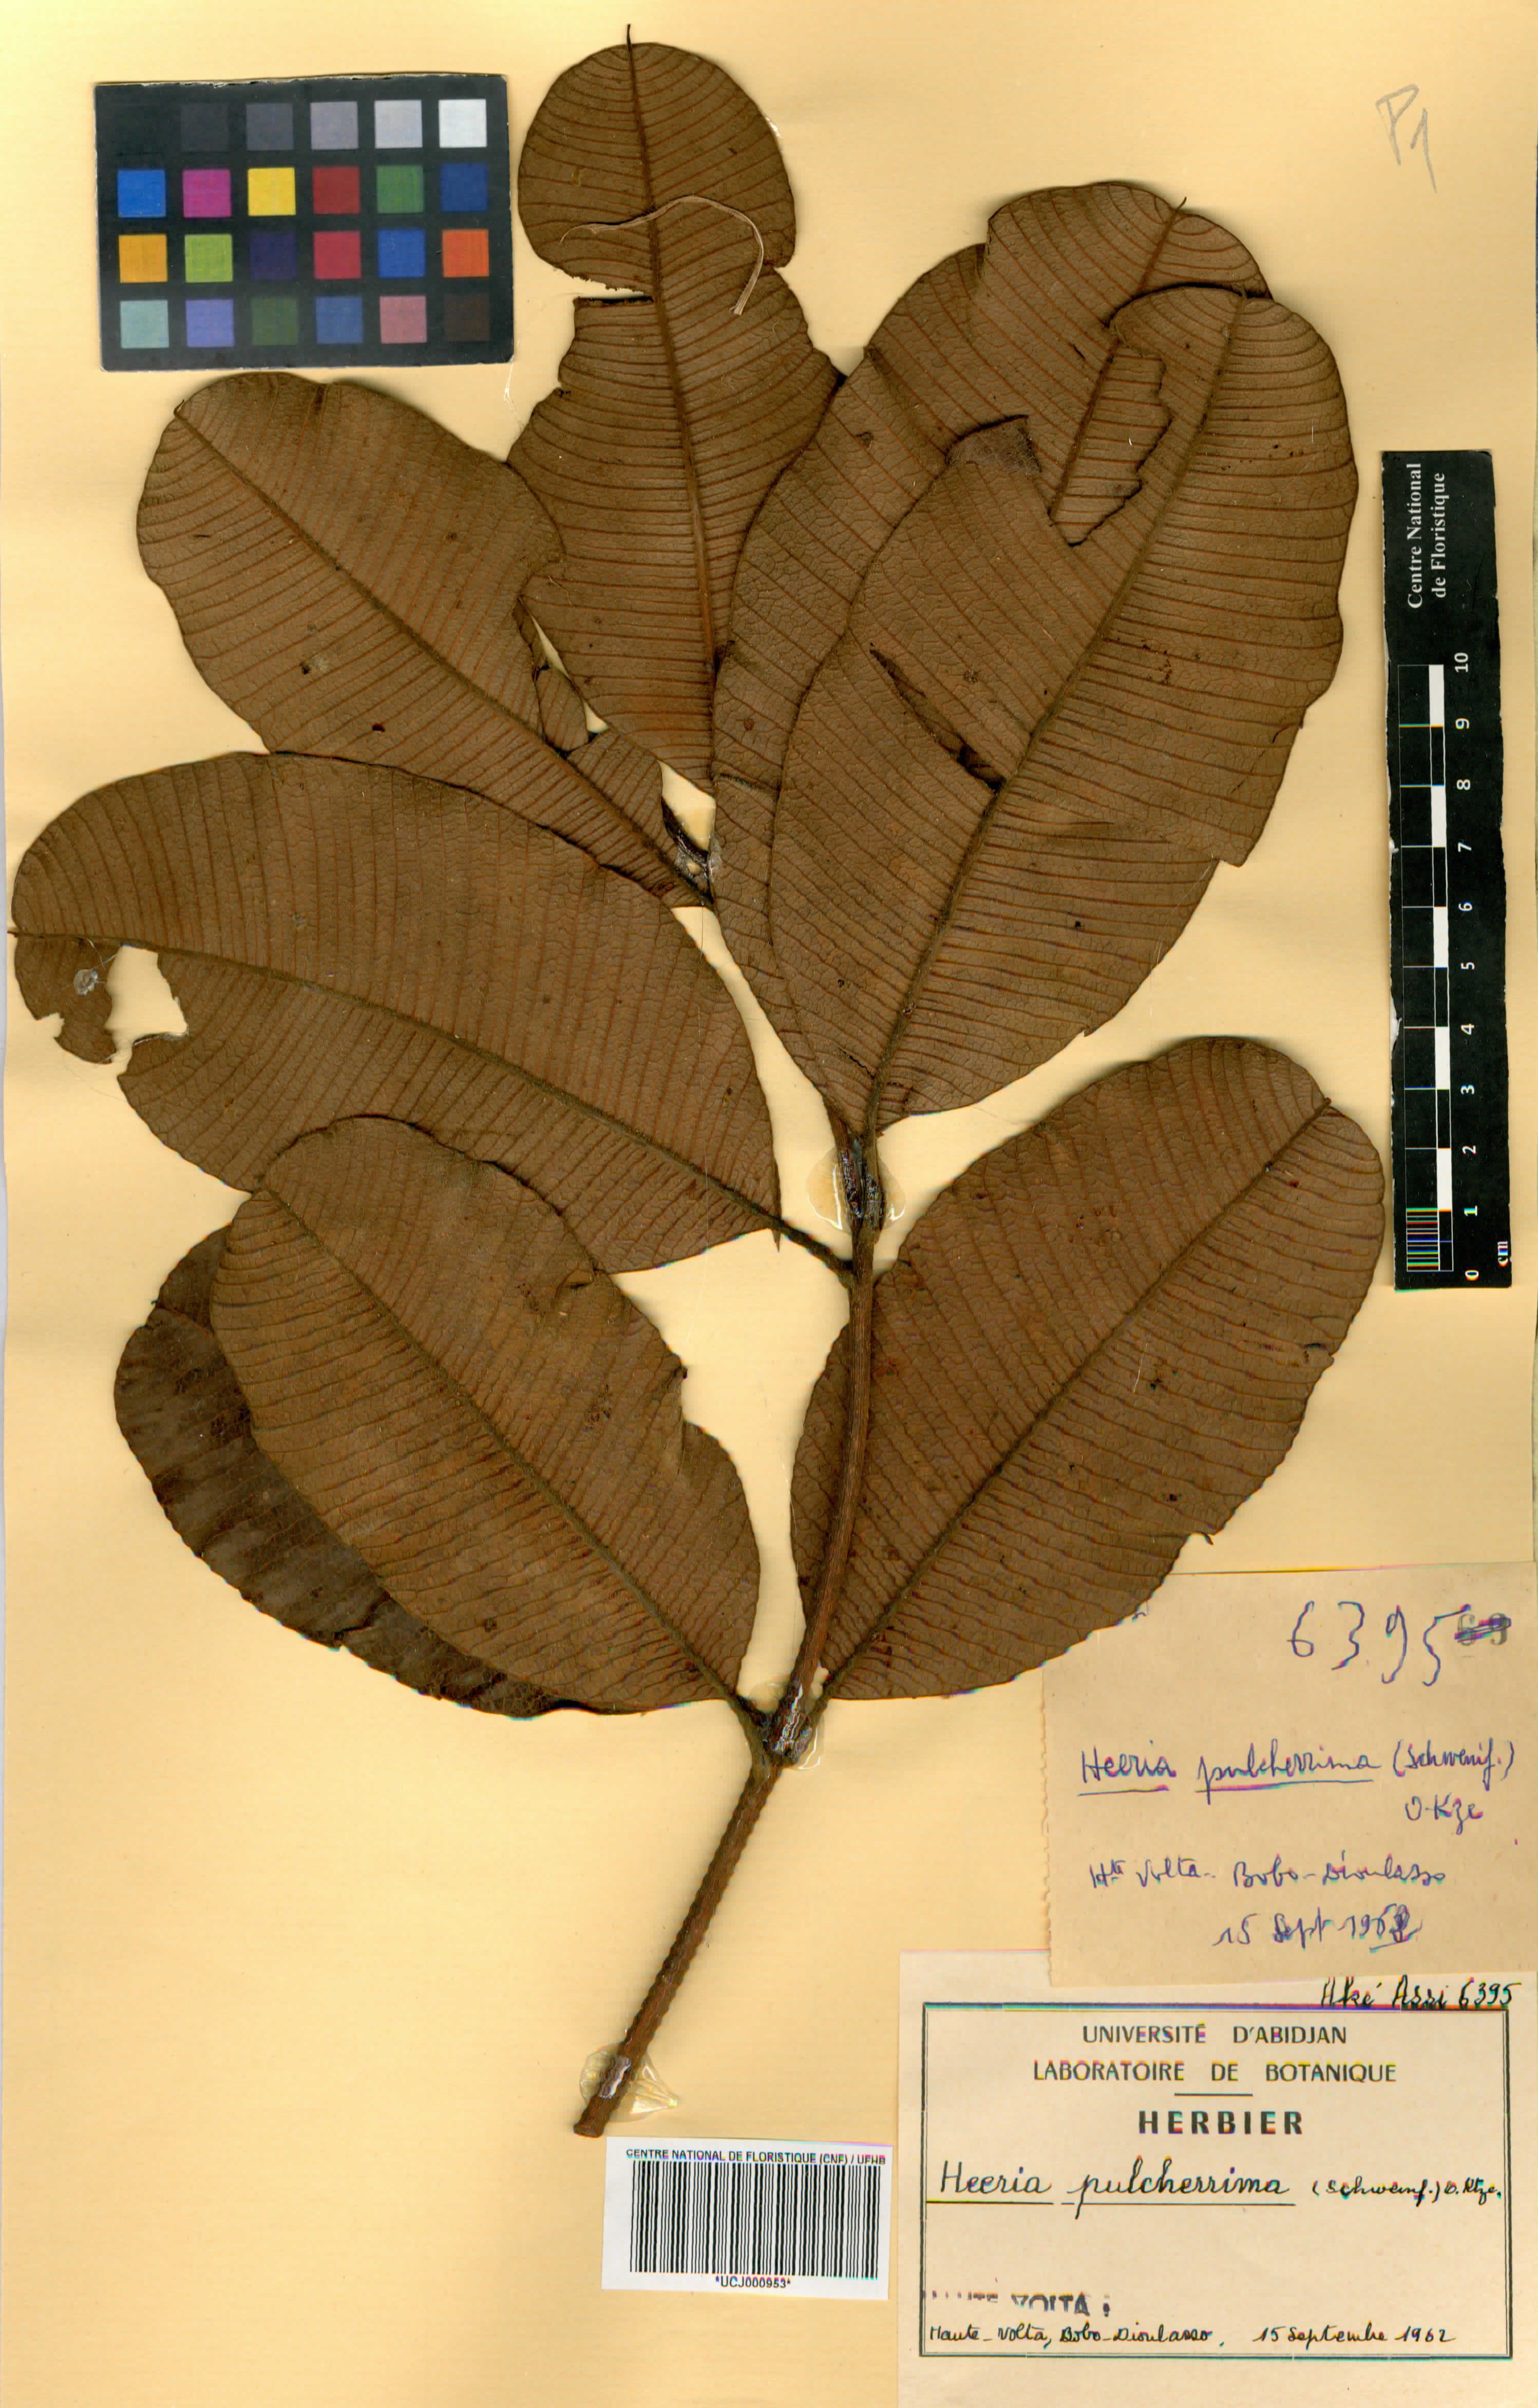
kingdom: Plantae
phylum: Tracheophyta
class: Magnoliopsida
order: Sapindales
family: Anacardiaceae
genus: Ozoroa
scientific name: Ozoroa pulcherrima
